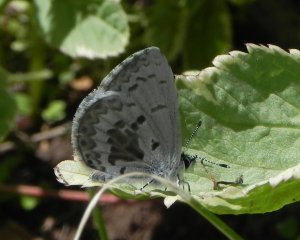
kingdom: Animalia
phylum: Arthropoda
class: Insecta
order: Lepidoptera
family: Lycaenidae
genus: Celastrina
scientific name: Celastrina lucia
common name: Northern Spring Azure
